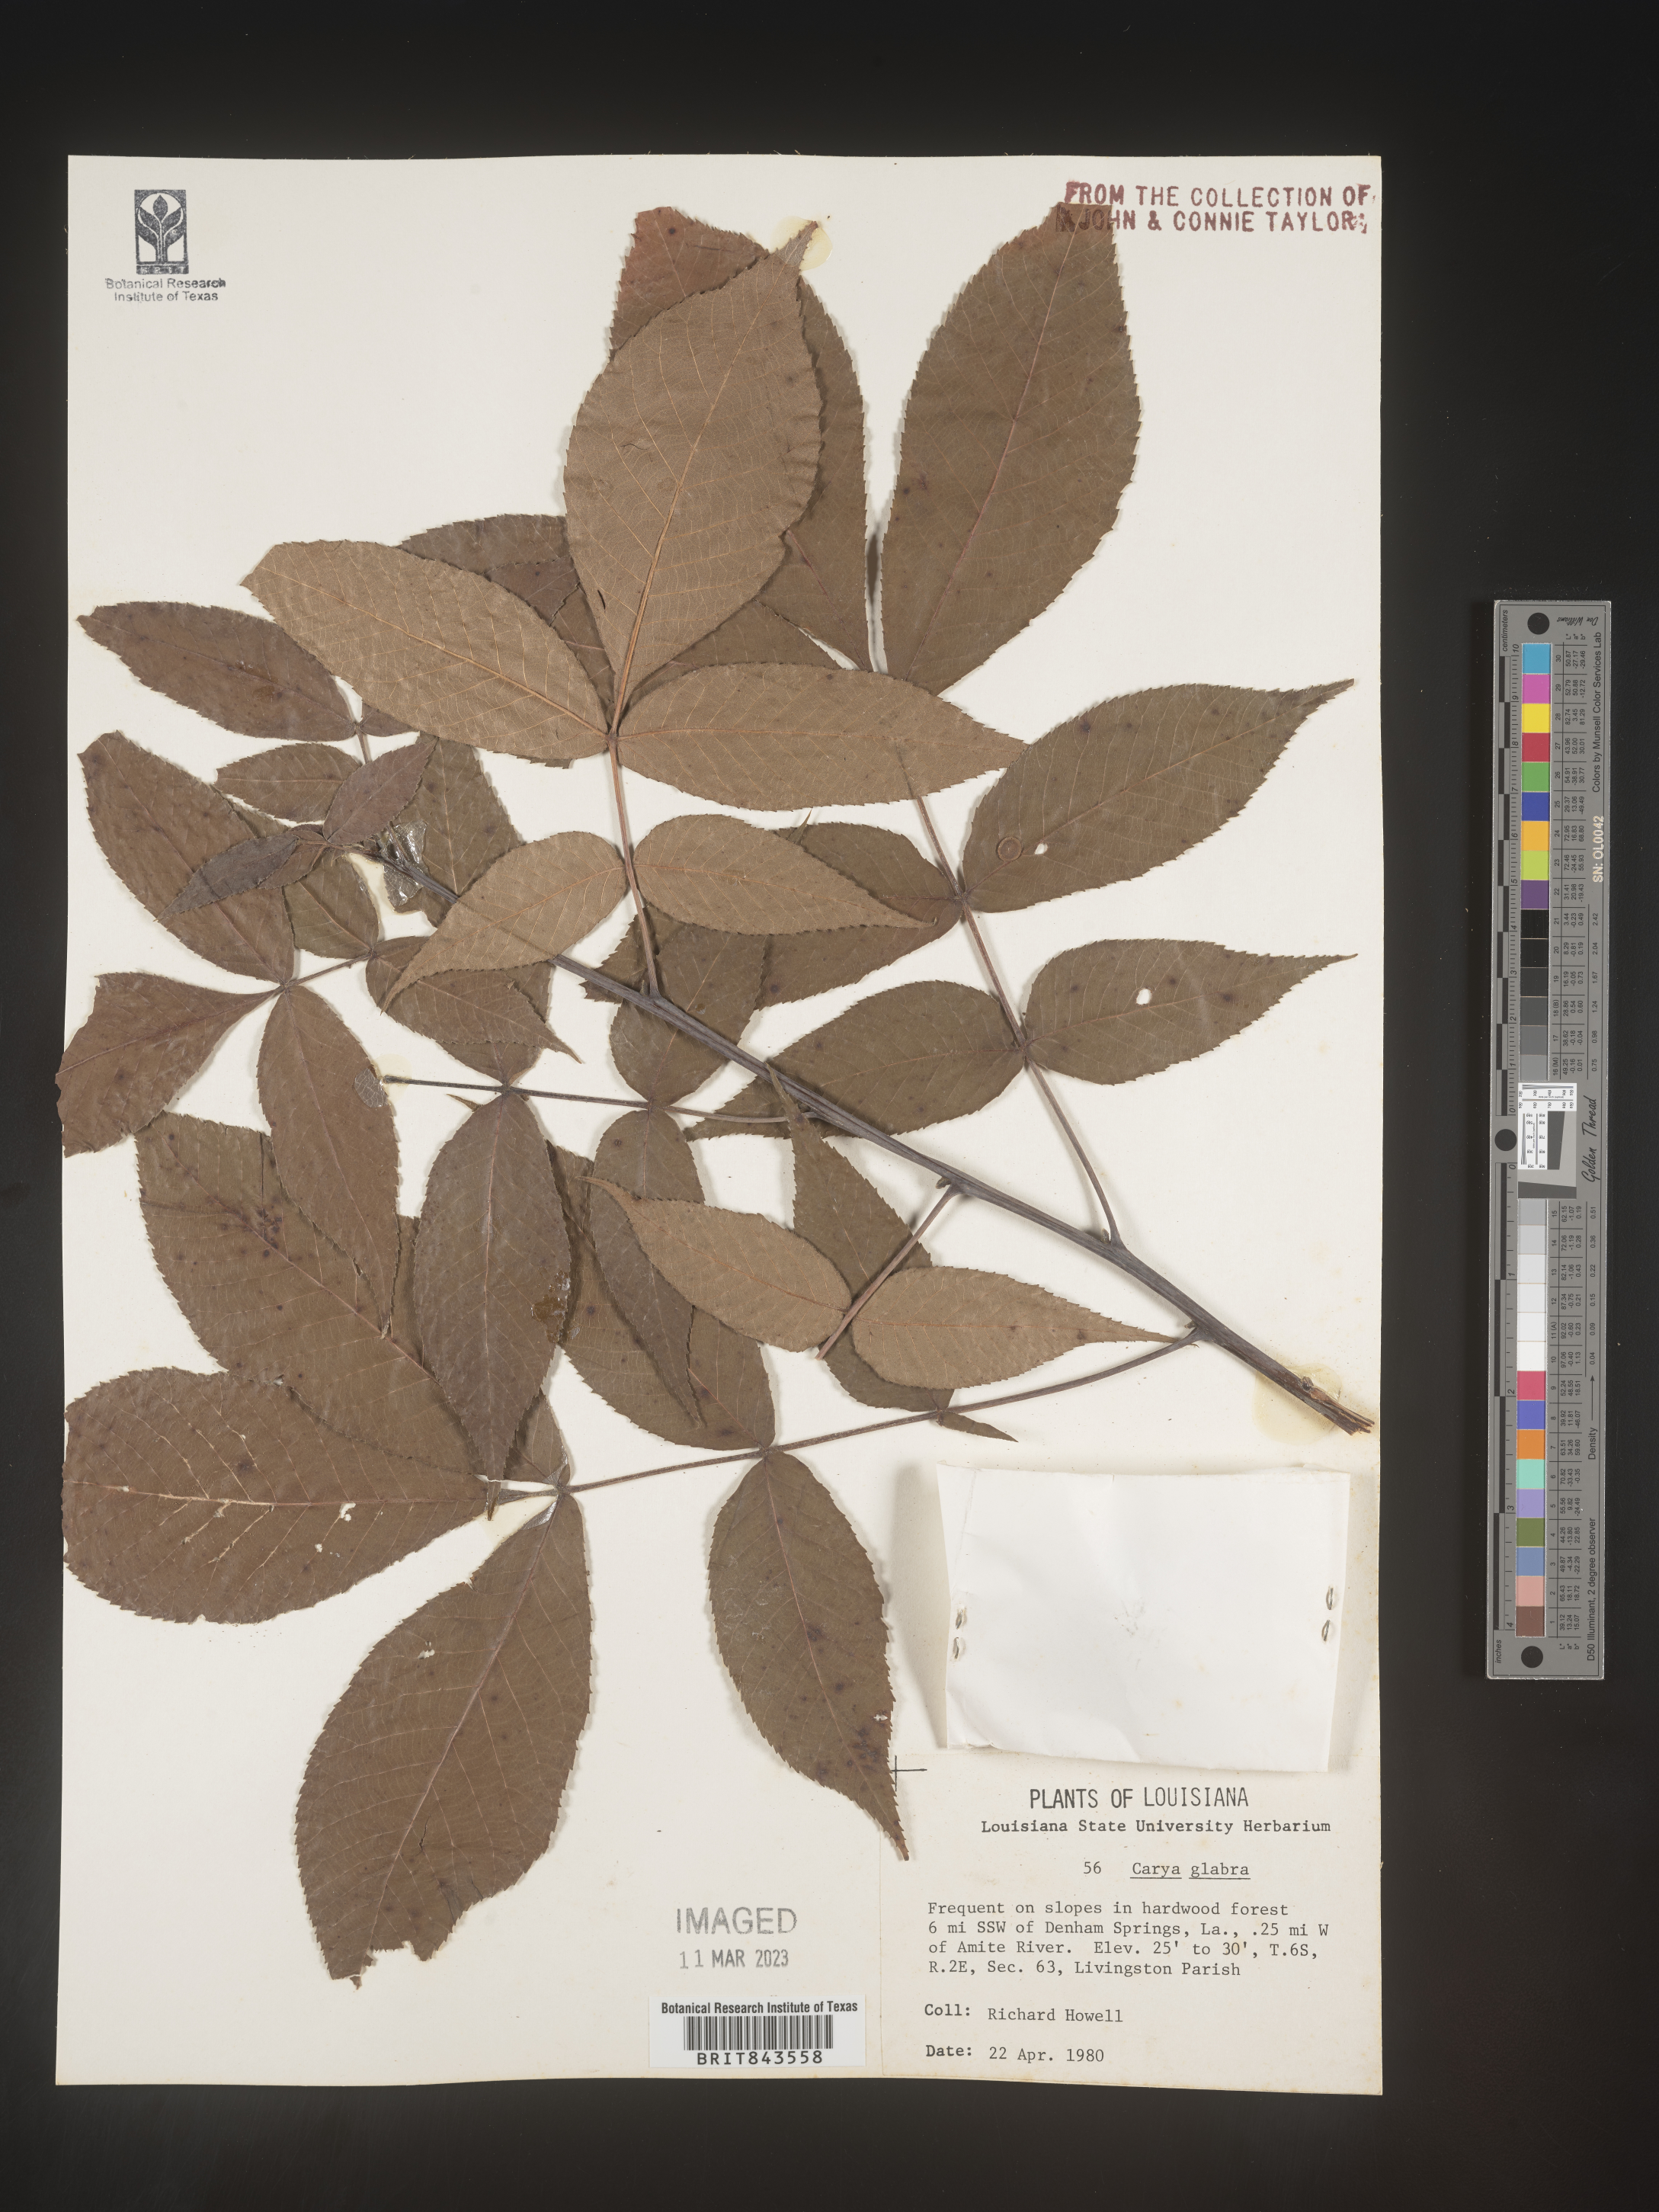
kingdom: Plantae
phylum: Tracheophyta
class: Magnoliopsida
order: Fagales
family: Juglandaceae
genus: Carya
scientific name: Carya glabra
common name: Pignut hickory
